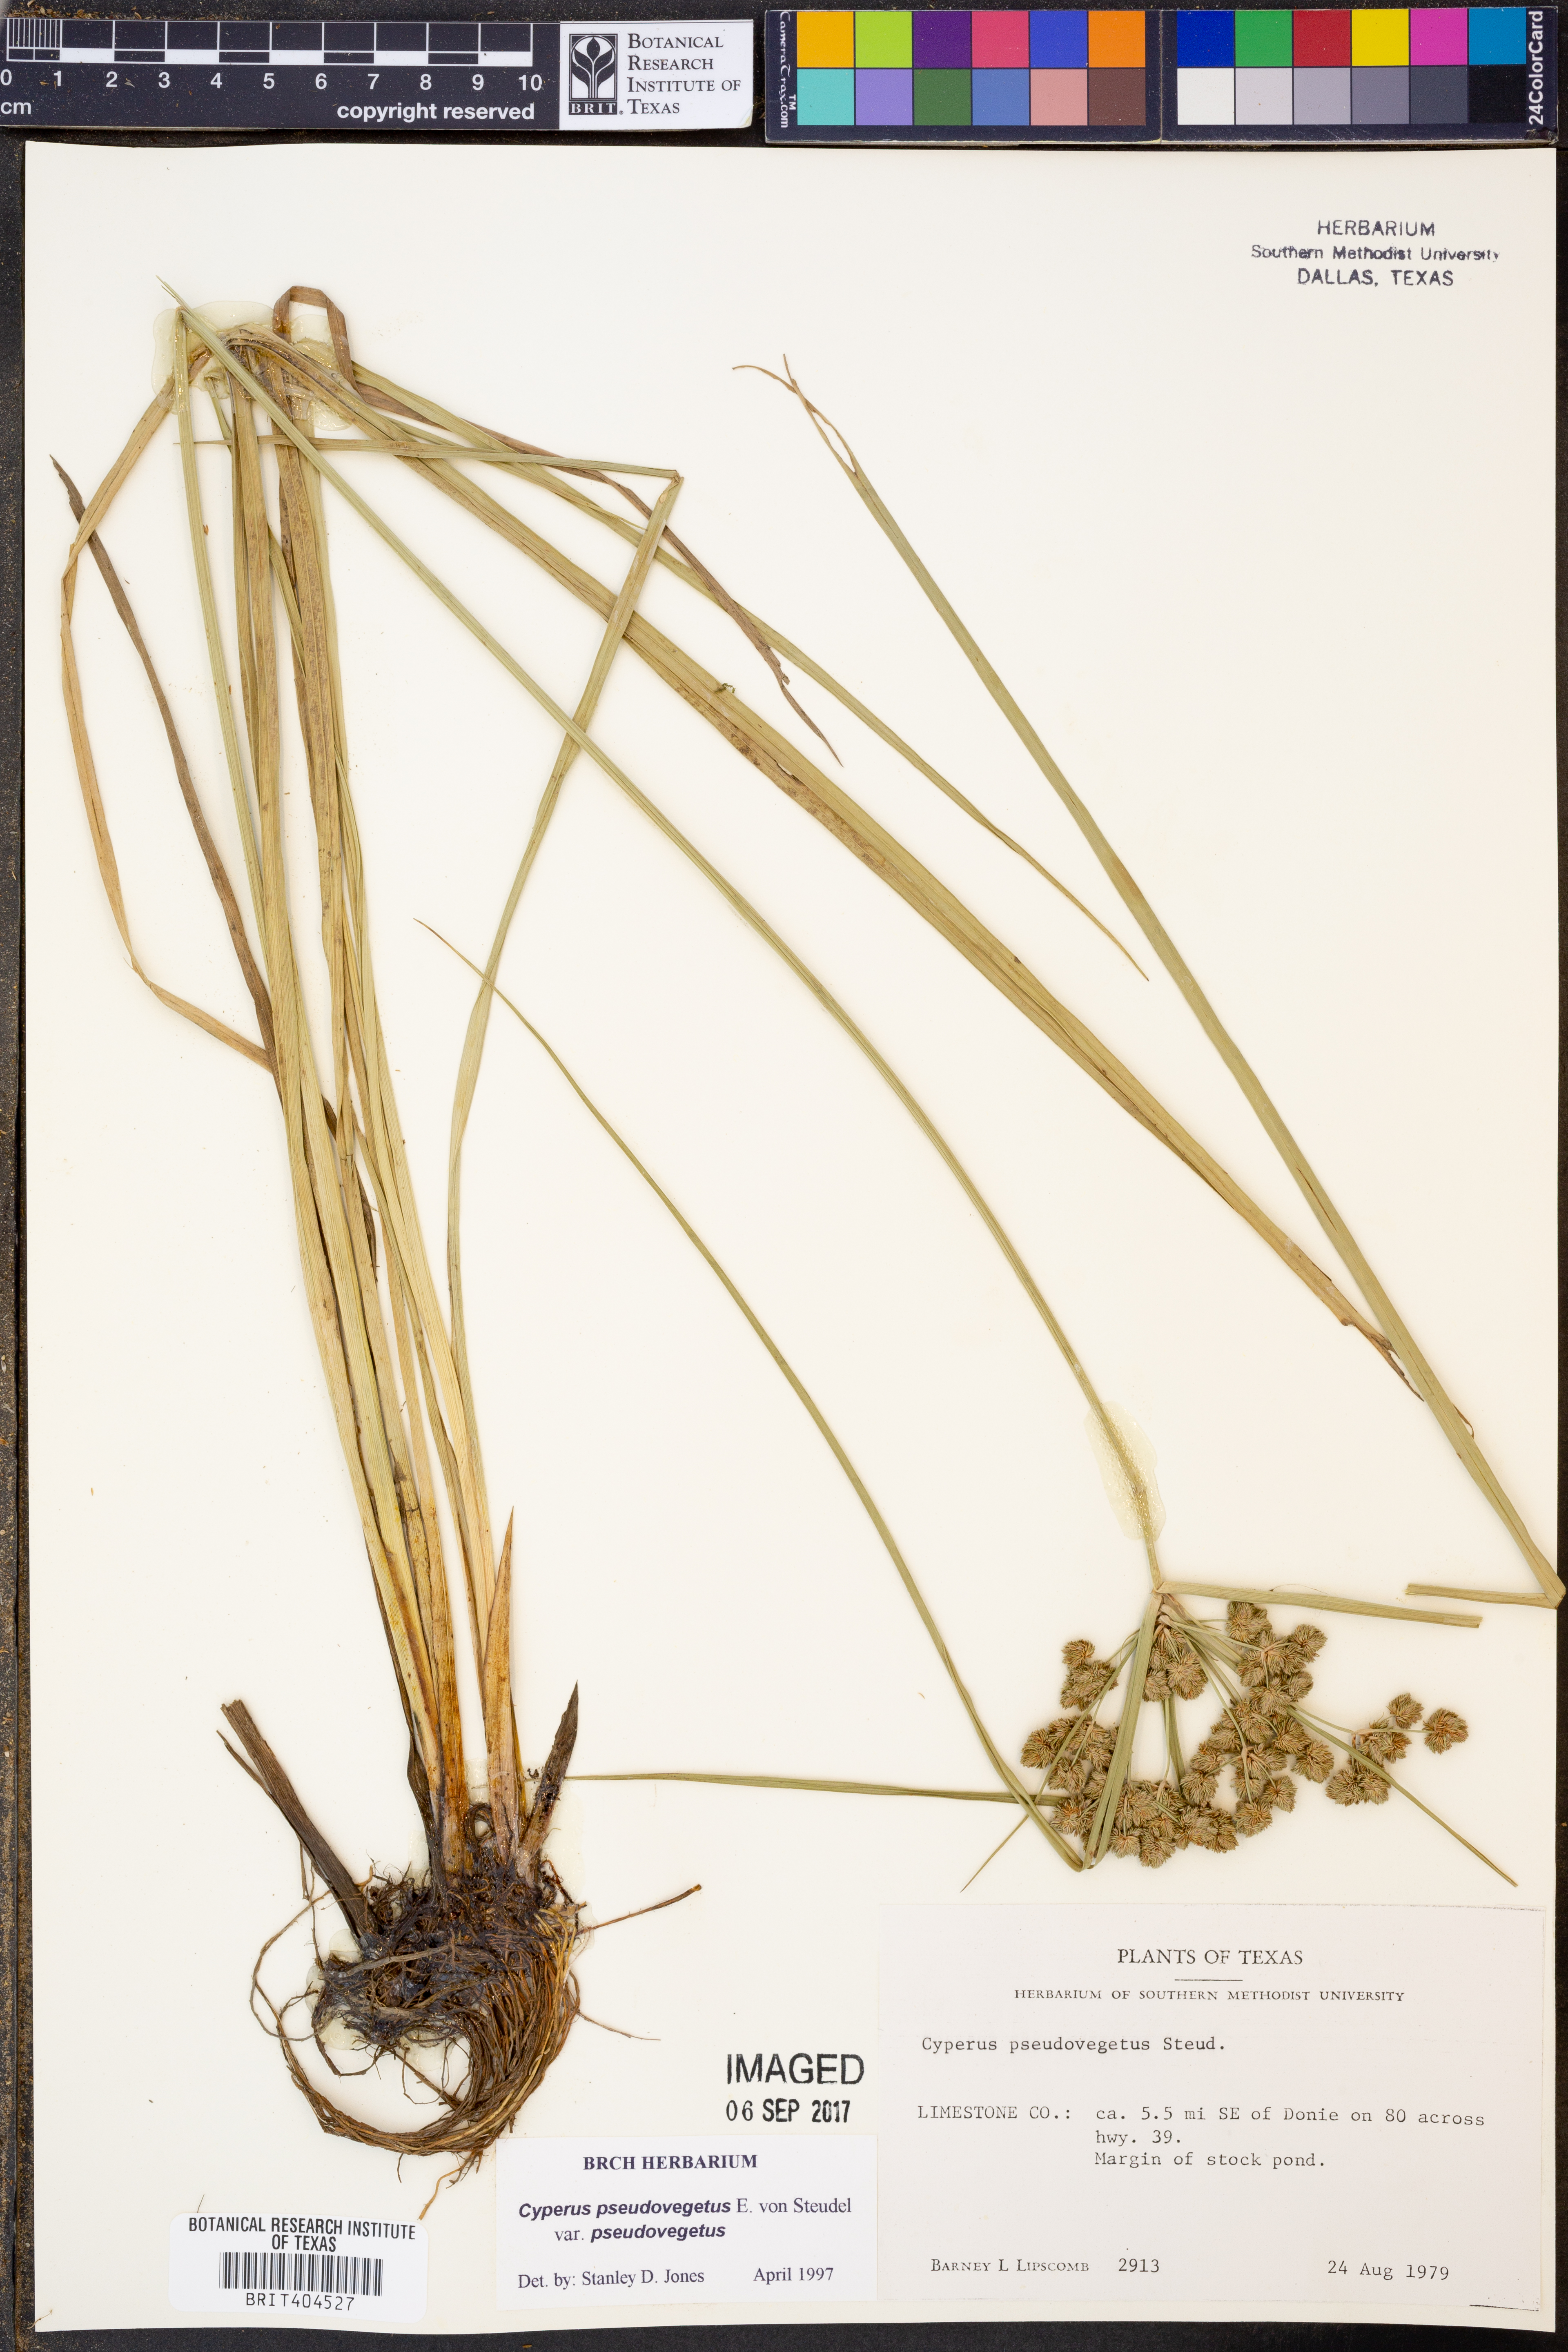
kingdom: Plantae
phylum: Tracheophyta
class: Liliopsida
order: Poales
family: Cyperaceae
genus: Cyperus
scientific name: Cyperus pseudovegetus
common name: Marsh flat sedge
